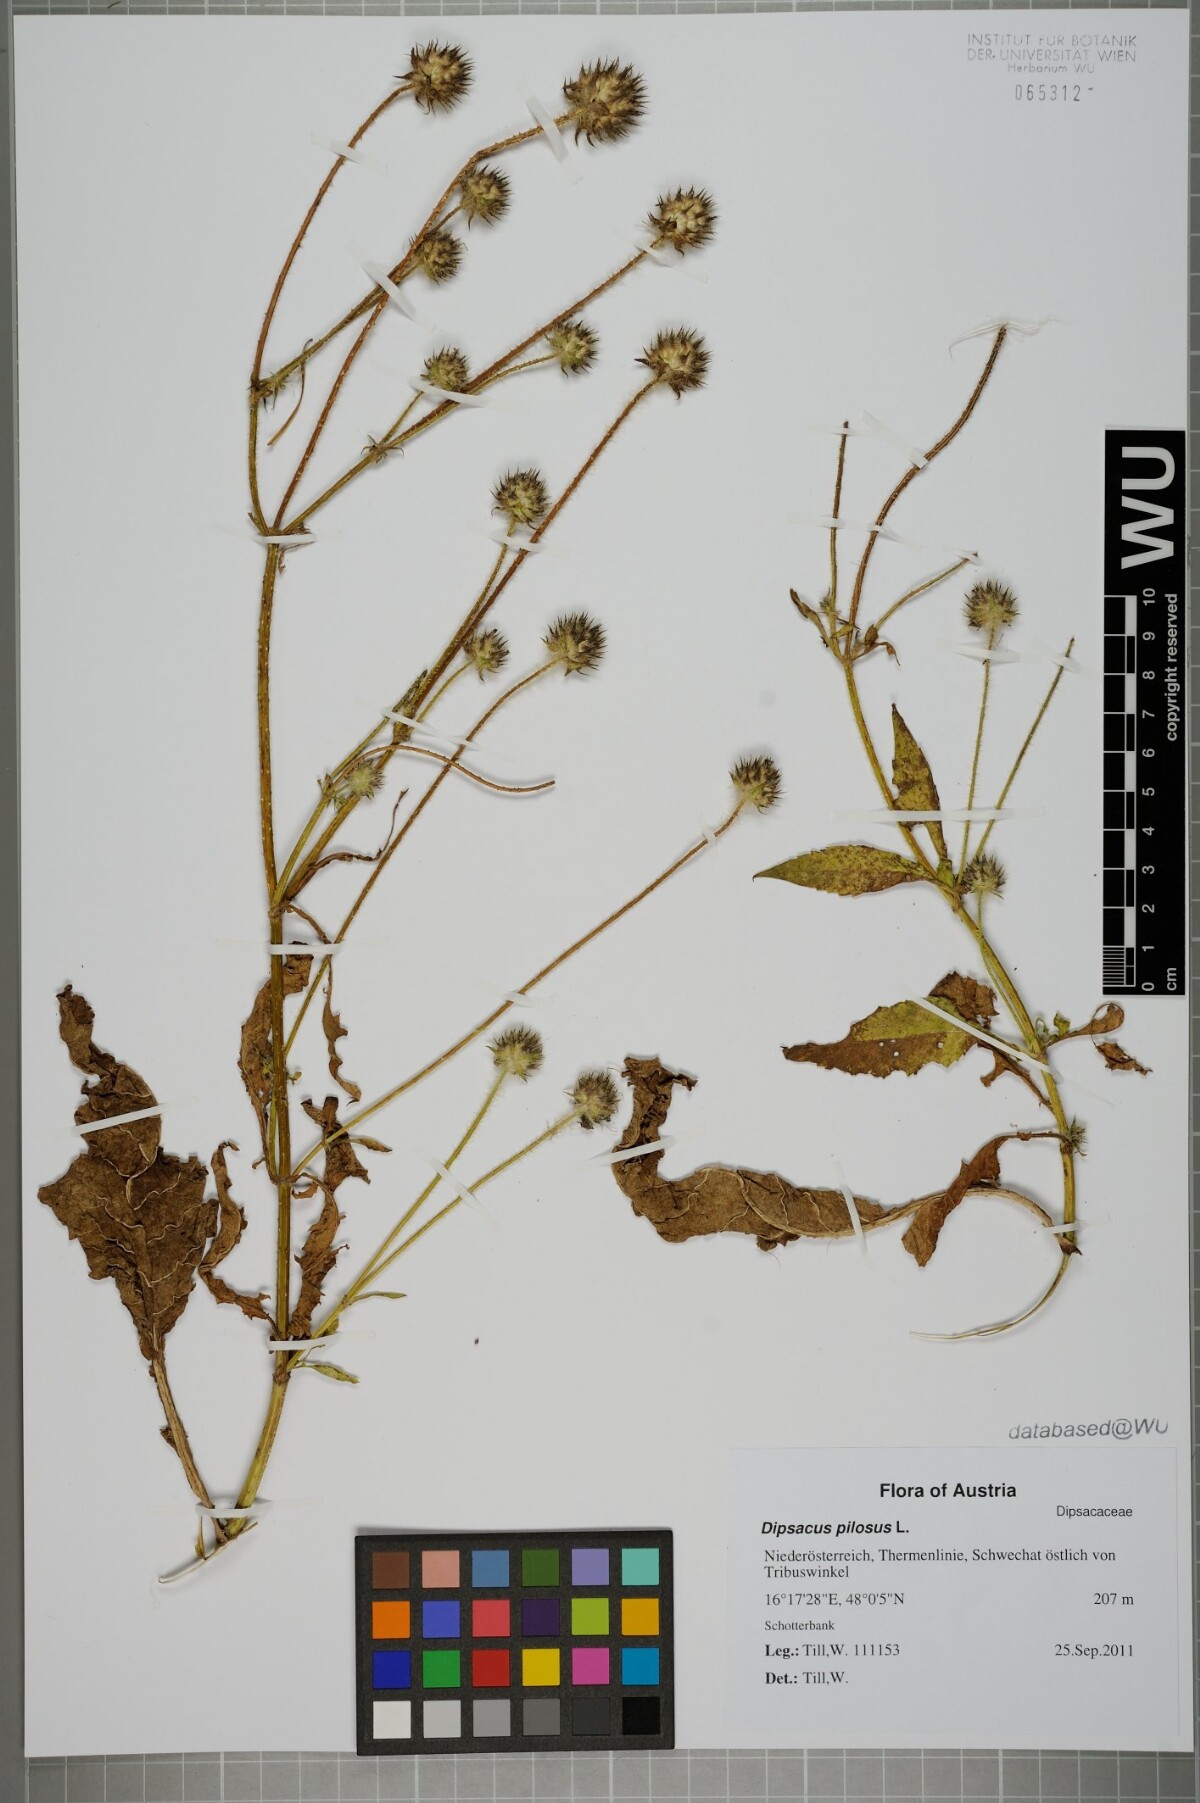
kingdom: Plantae
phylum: Tracheophyta
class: Magnoliopsida
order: Dipsacales
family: Caprifoliaceae
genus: Dipsacus
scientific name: Dipsacus pilosus
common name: Small teasel
